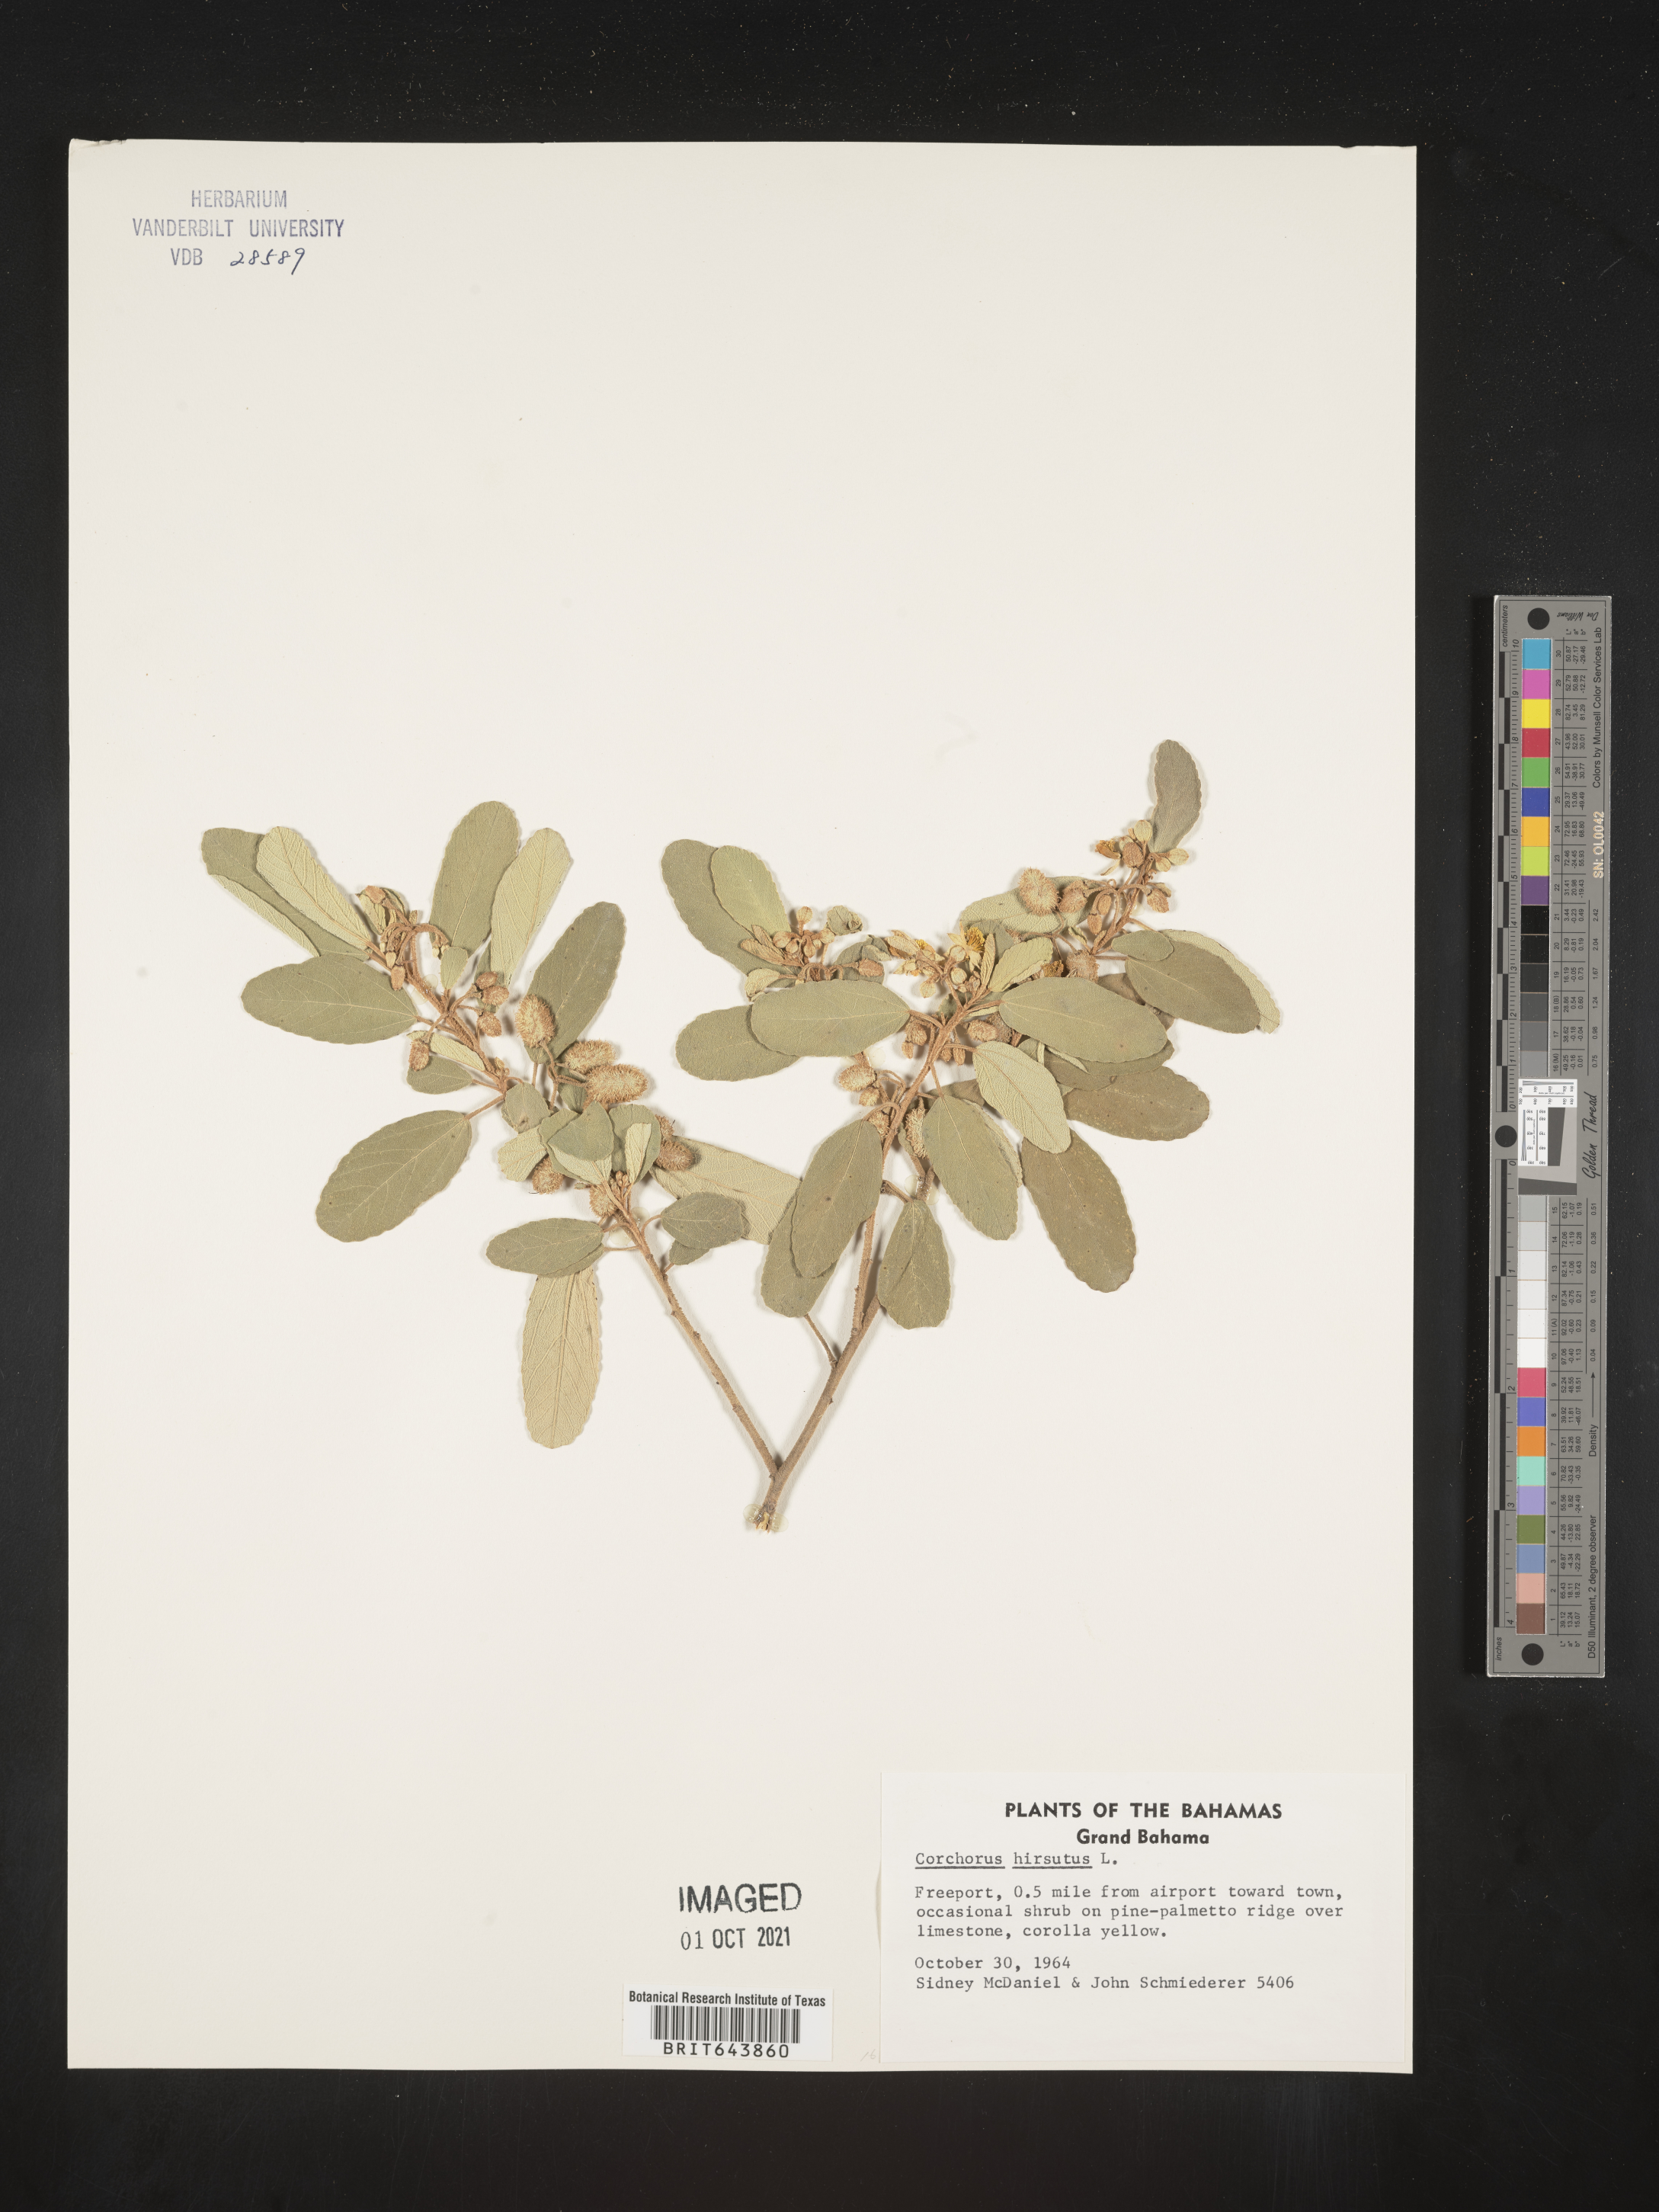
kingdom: Plantae
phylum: Tracheophyta
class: Magnoliopsida
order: Malvales
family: Malvaceae
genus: Corchorus
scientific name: Corchorus
